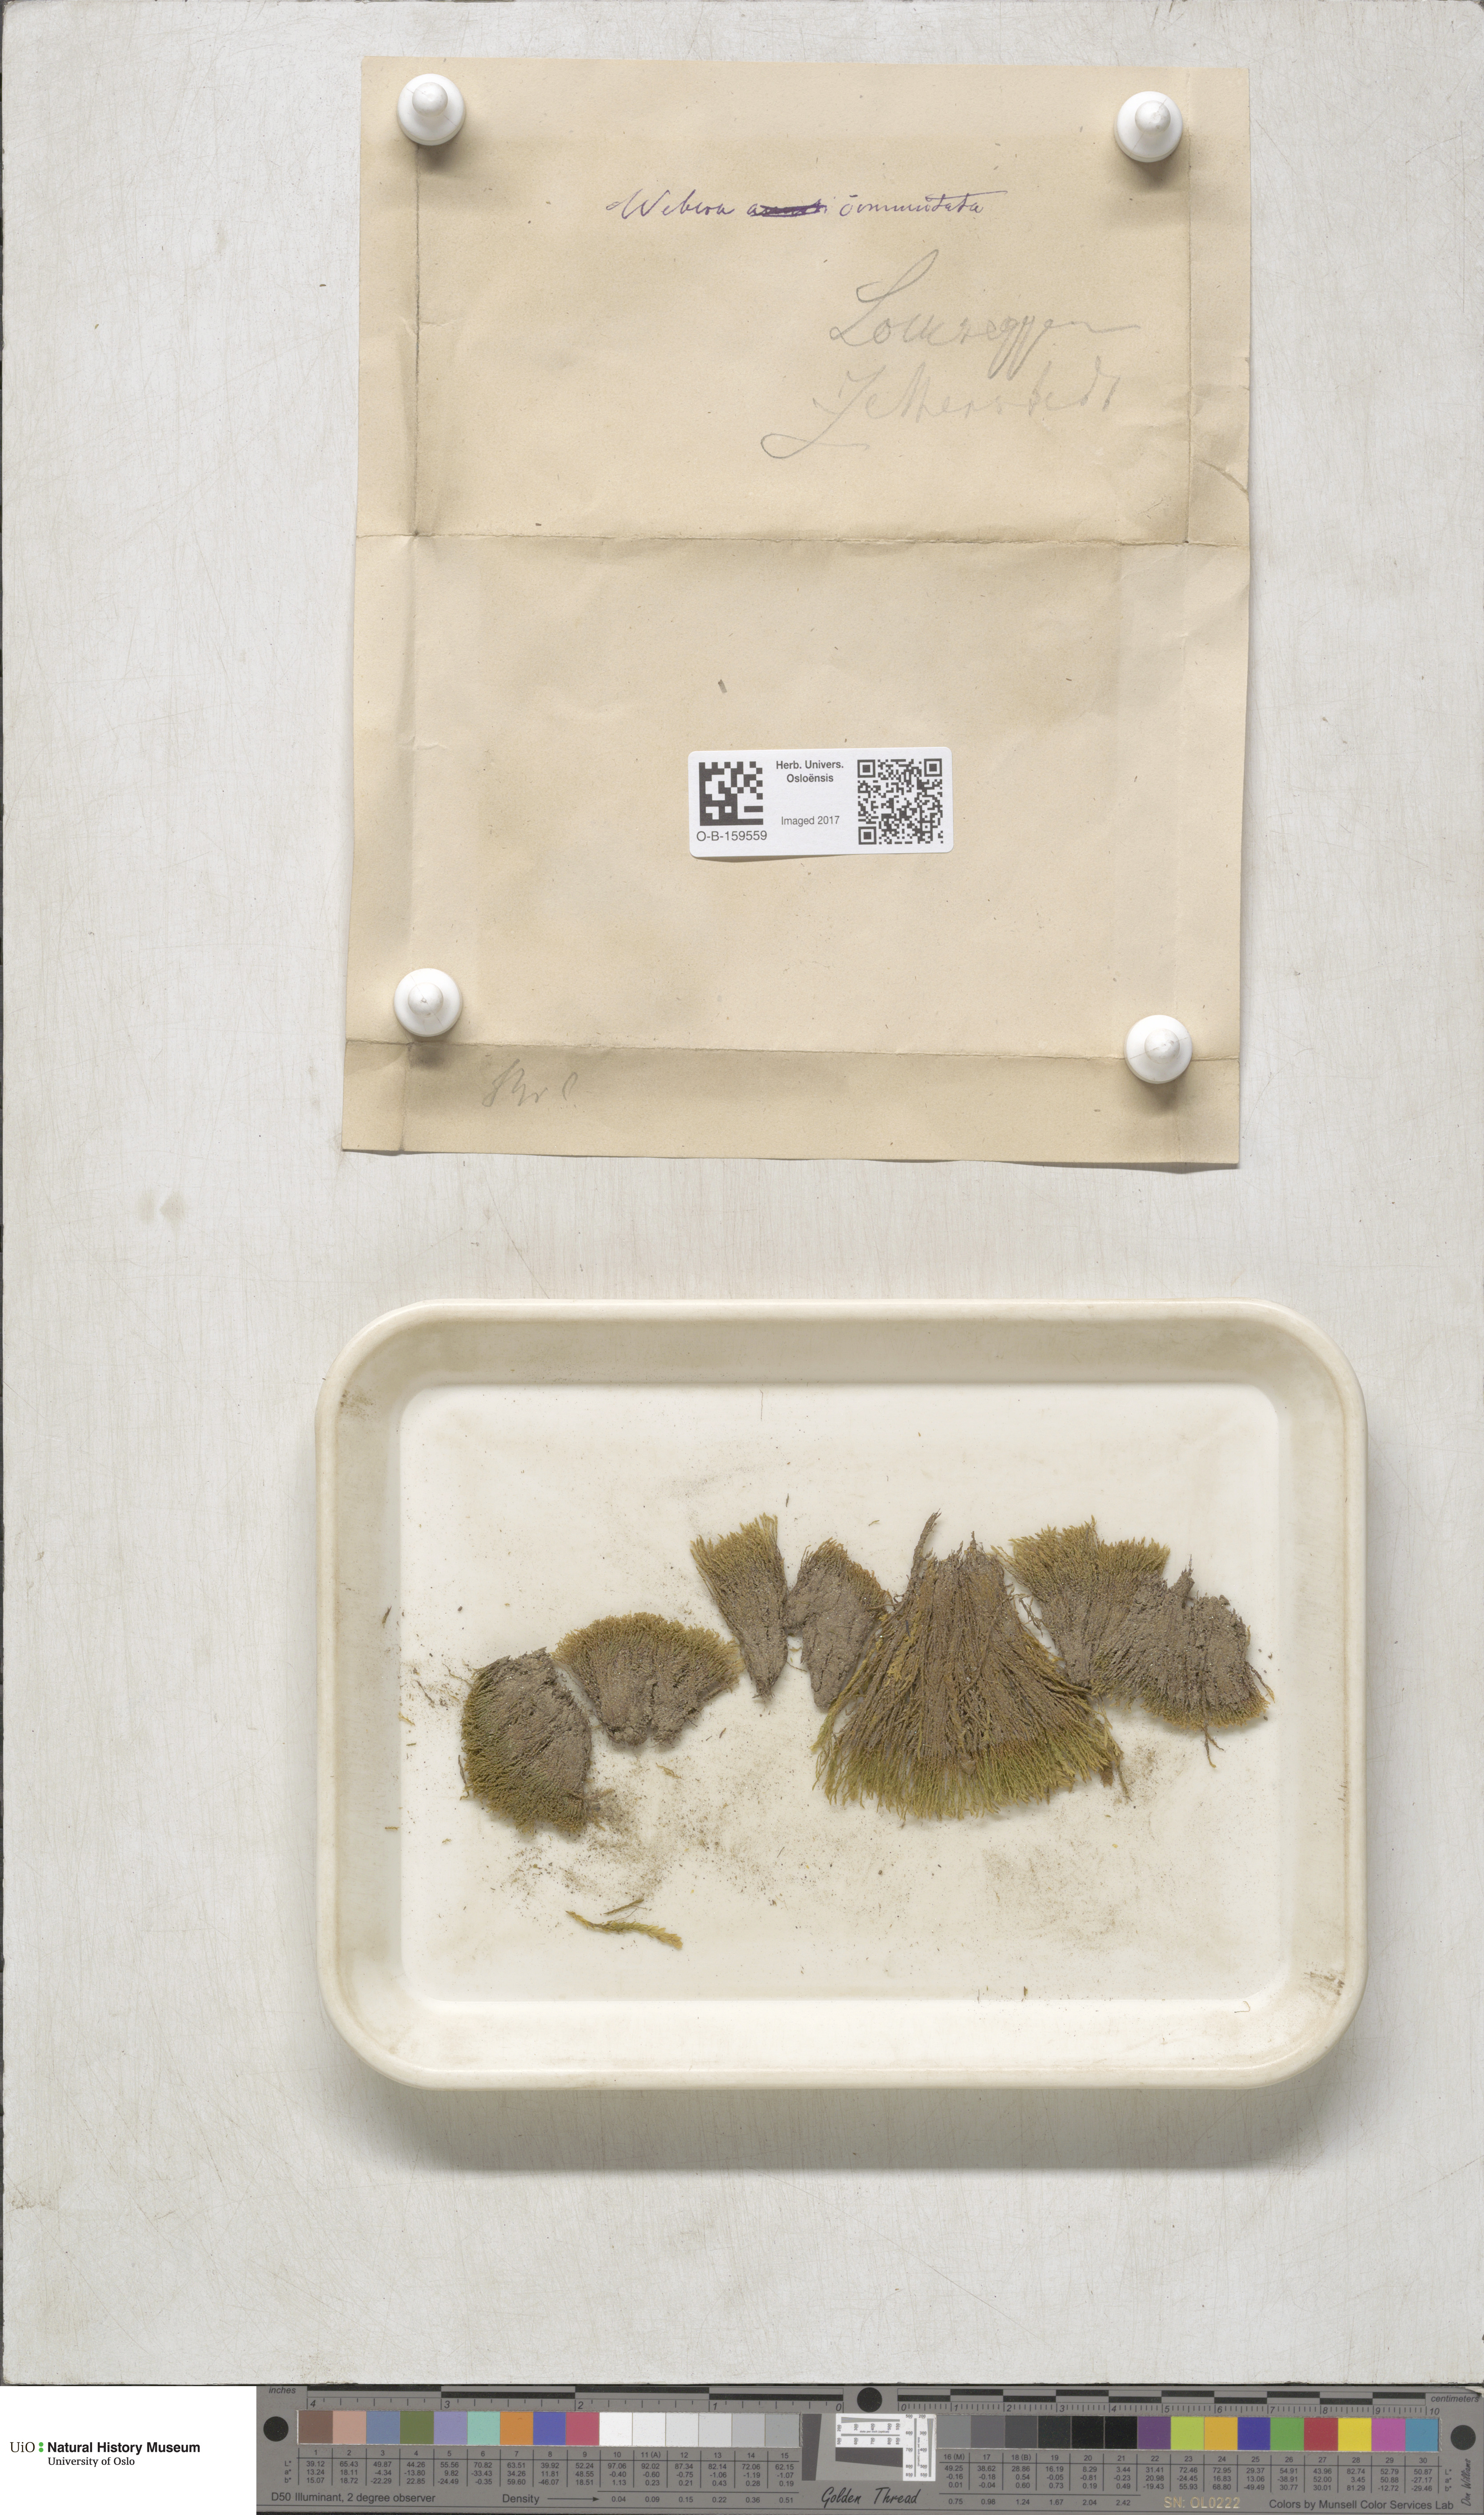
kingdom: Plantae
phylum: Bryophyta
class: Bryopsida
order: Bryales
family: Mniaceae
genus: Pohlia
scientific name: Pohlia drummondii
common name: Drummond's nodding moss
